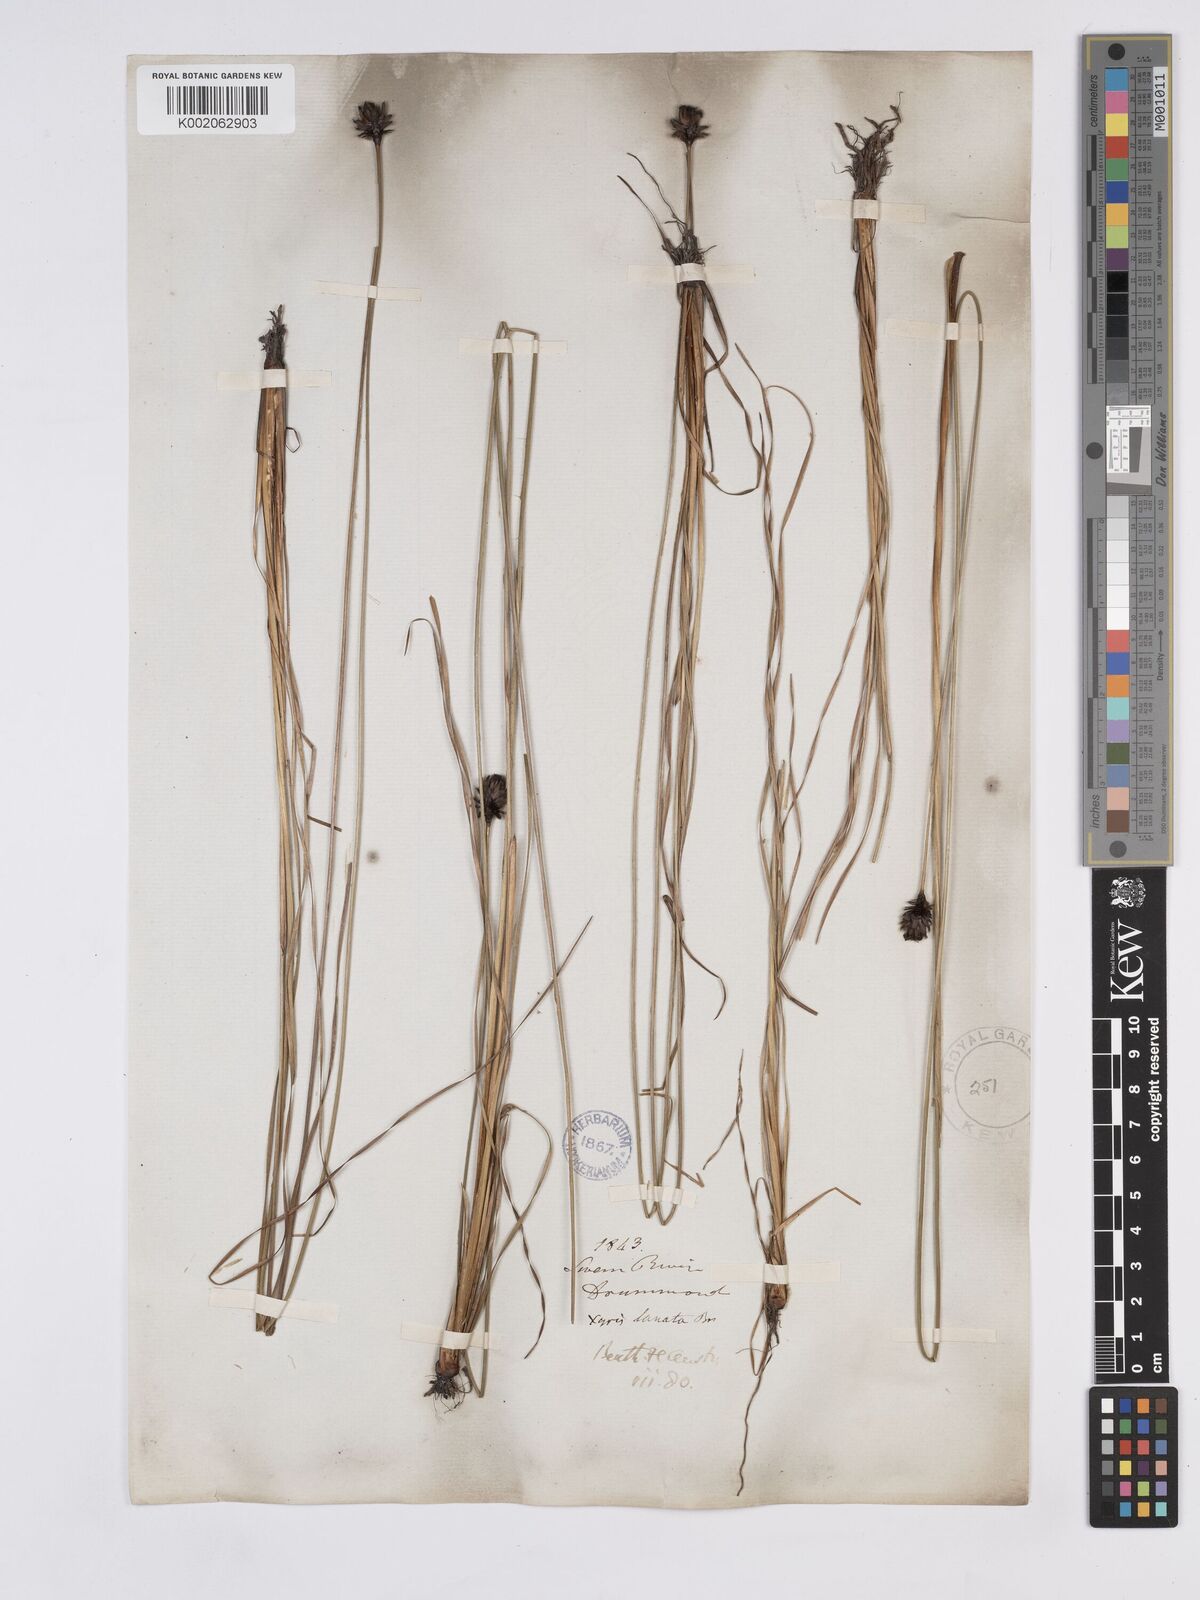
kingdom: Plantae
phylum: Tracheophyta
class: Liliopsida
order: Poales
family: Xyridaceae
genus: Xyris
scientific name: Xyris lanata
